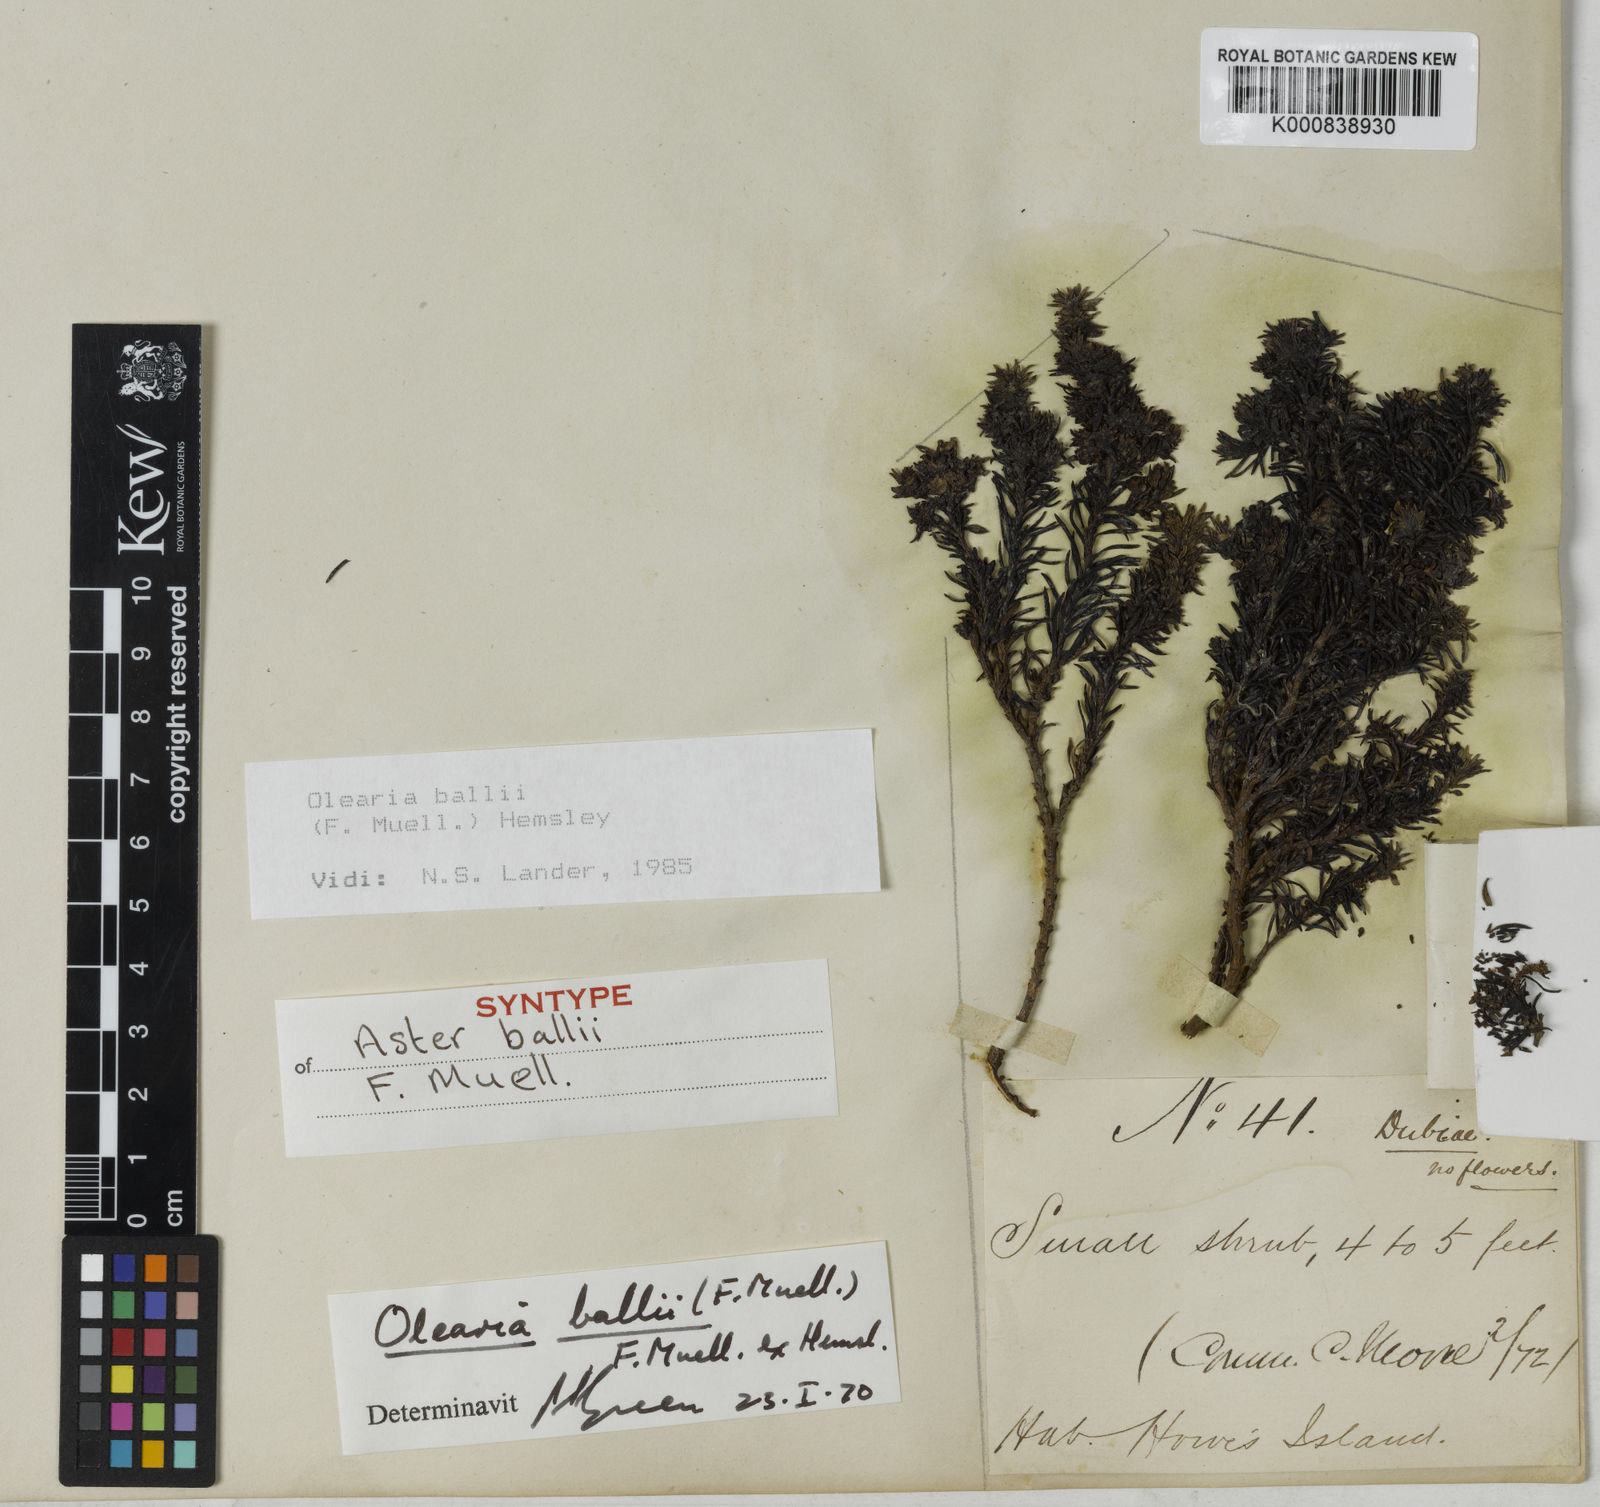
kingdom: Plantae
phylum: Tracheophyta
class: Magnoliopsida
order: Asterales
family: Asteraceae
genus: Olearia
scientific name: Olearia ballii
